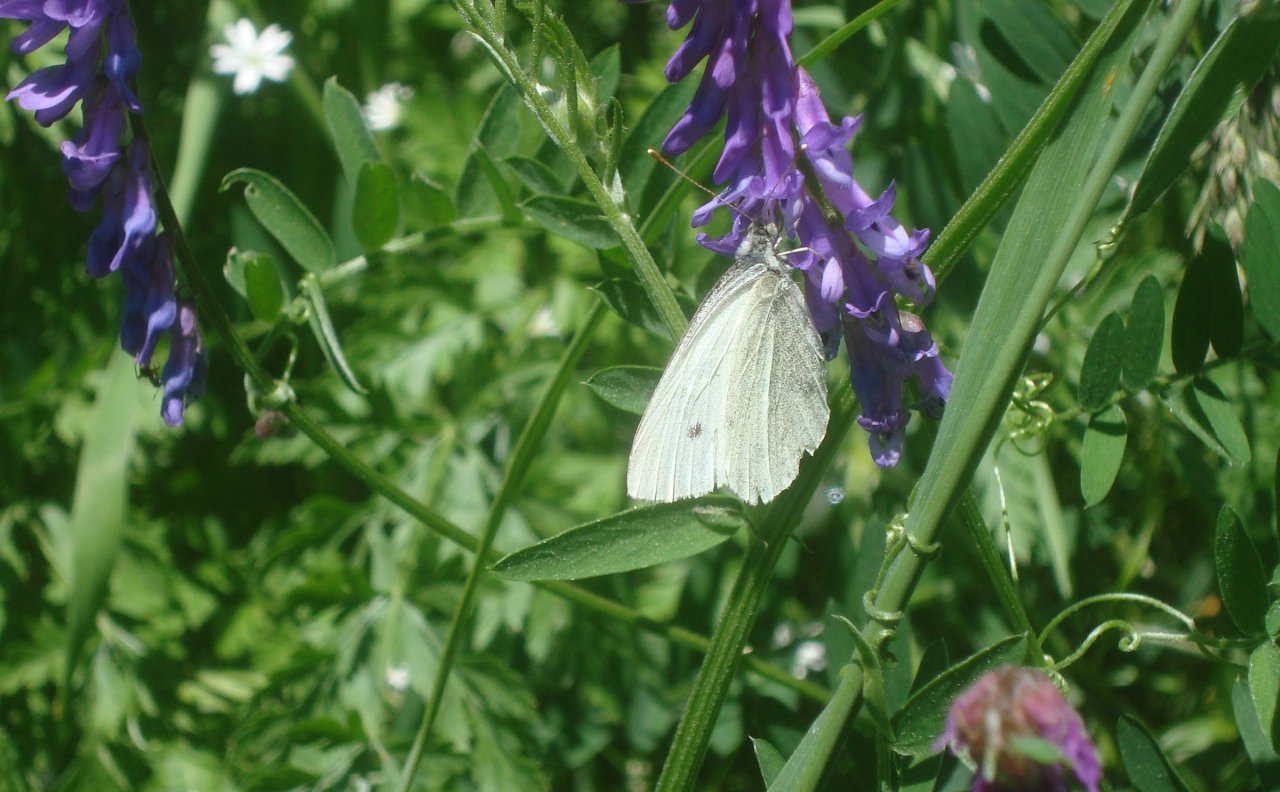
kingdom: Animalia
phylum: Arthropoda
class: Insecta
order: Lepidoptera
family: Pieridae
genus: Pieris
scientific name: Pieris rapae
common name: Cabbage White
